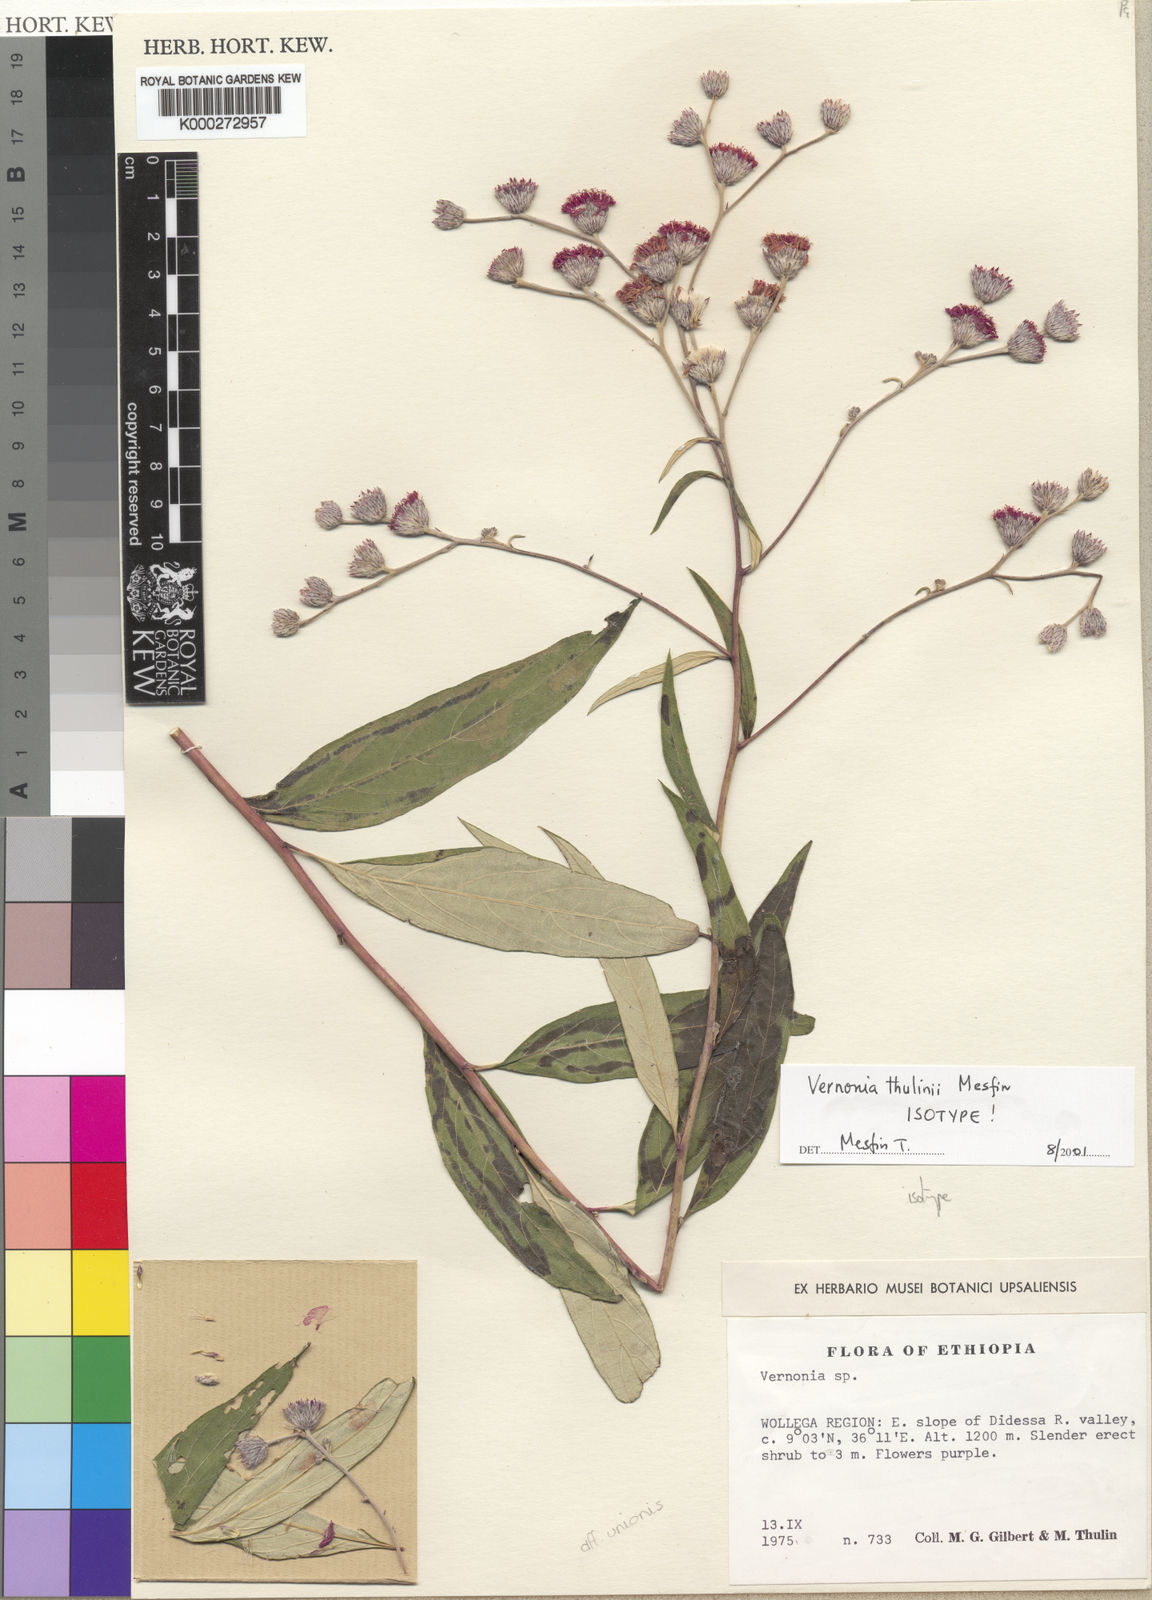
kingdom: Plantae
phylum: Tracheophyta
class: Magnoliopsida
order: Asterales
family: Asteraceae
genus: Vernonia
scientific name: Vernonia thulinii
